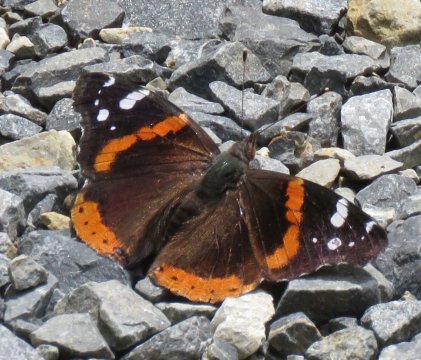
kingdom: Animalia
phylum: Arthropoda
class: Insecta
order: Lepidoptera
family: Nymphalidae
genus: Vanessa
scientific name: Vanessa atalanta
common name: Red Admiral
